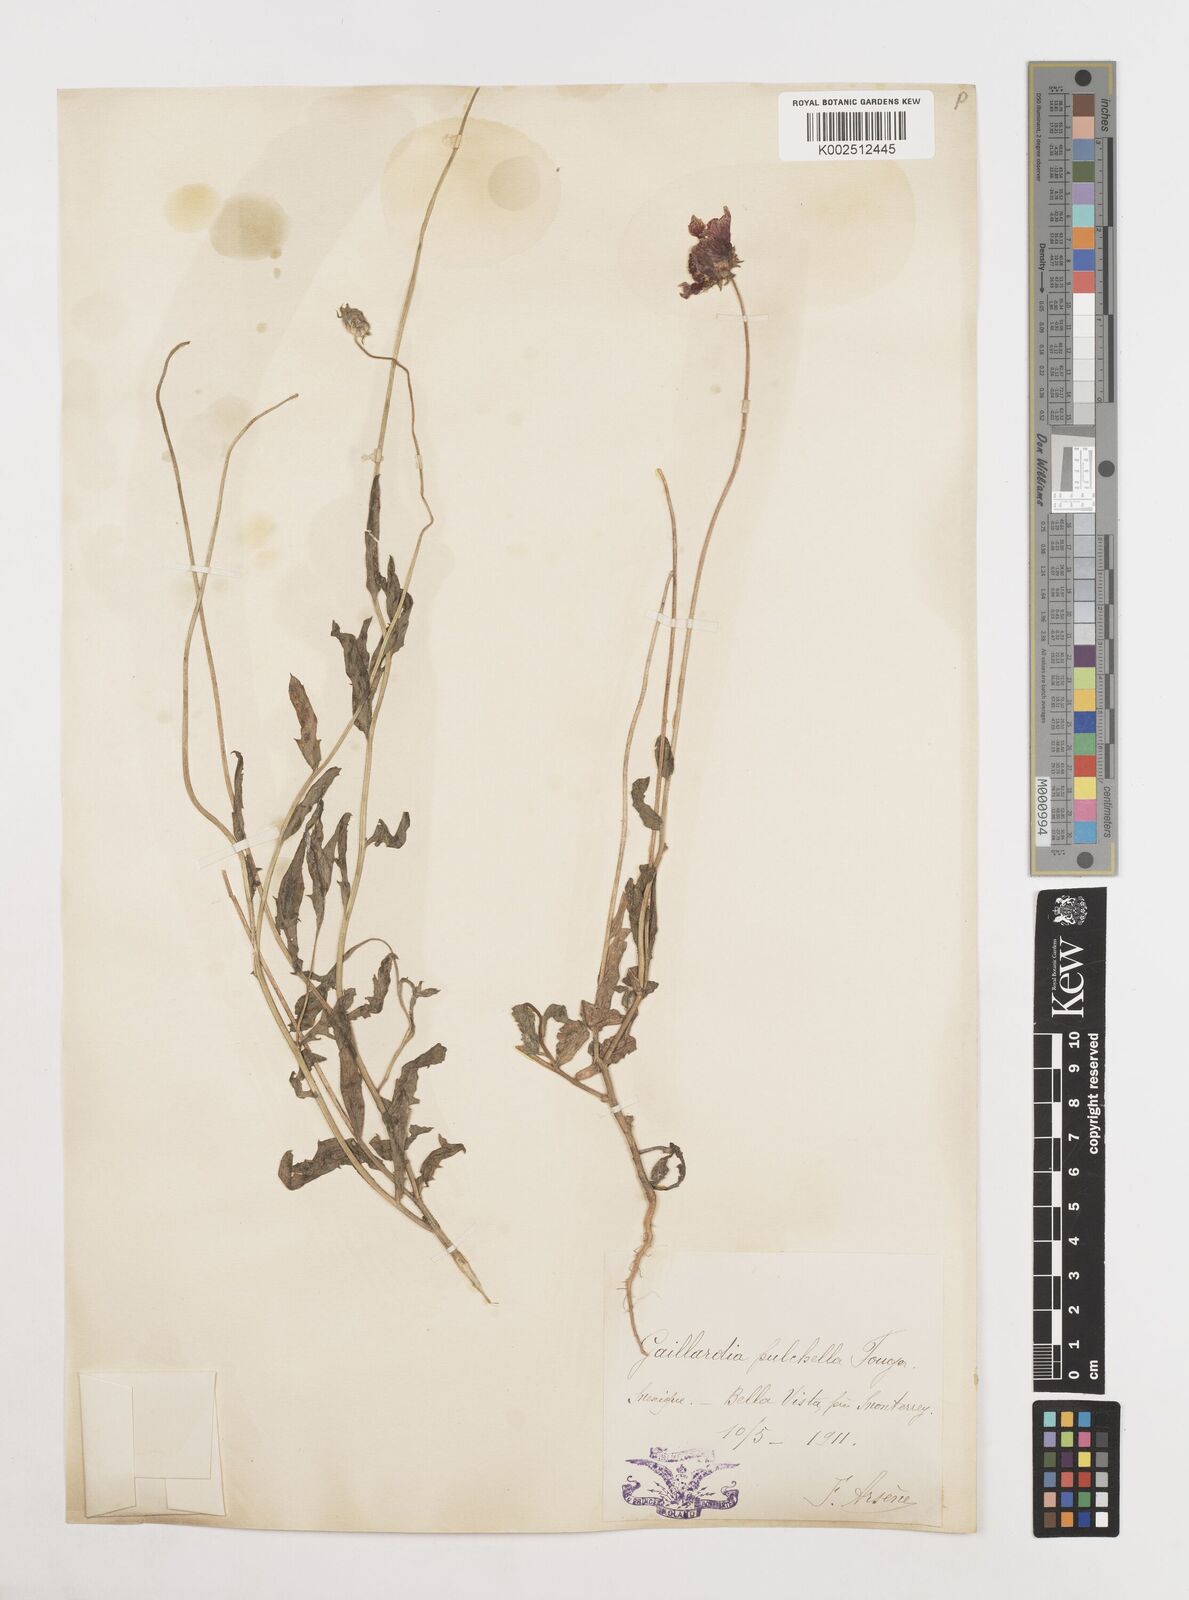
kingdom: Plantae
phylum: Tracheophyta
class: Magnoliopsida
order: Asterales
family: Asteraceae
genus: Gaillardia
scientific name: Gaillardia pulchella
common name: Firewheel
